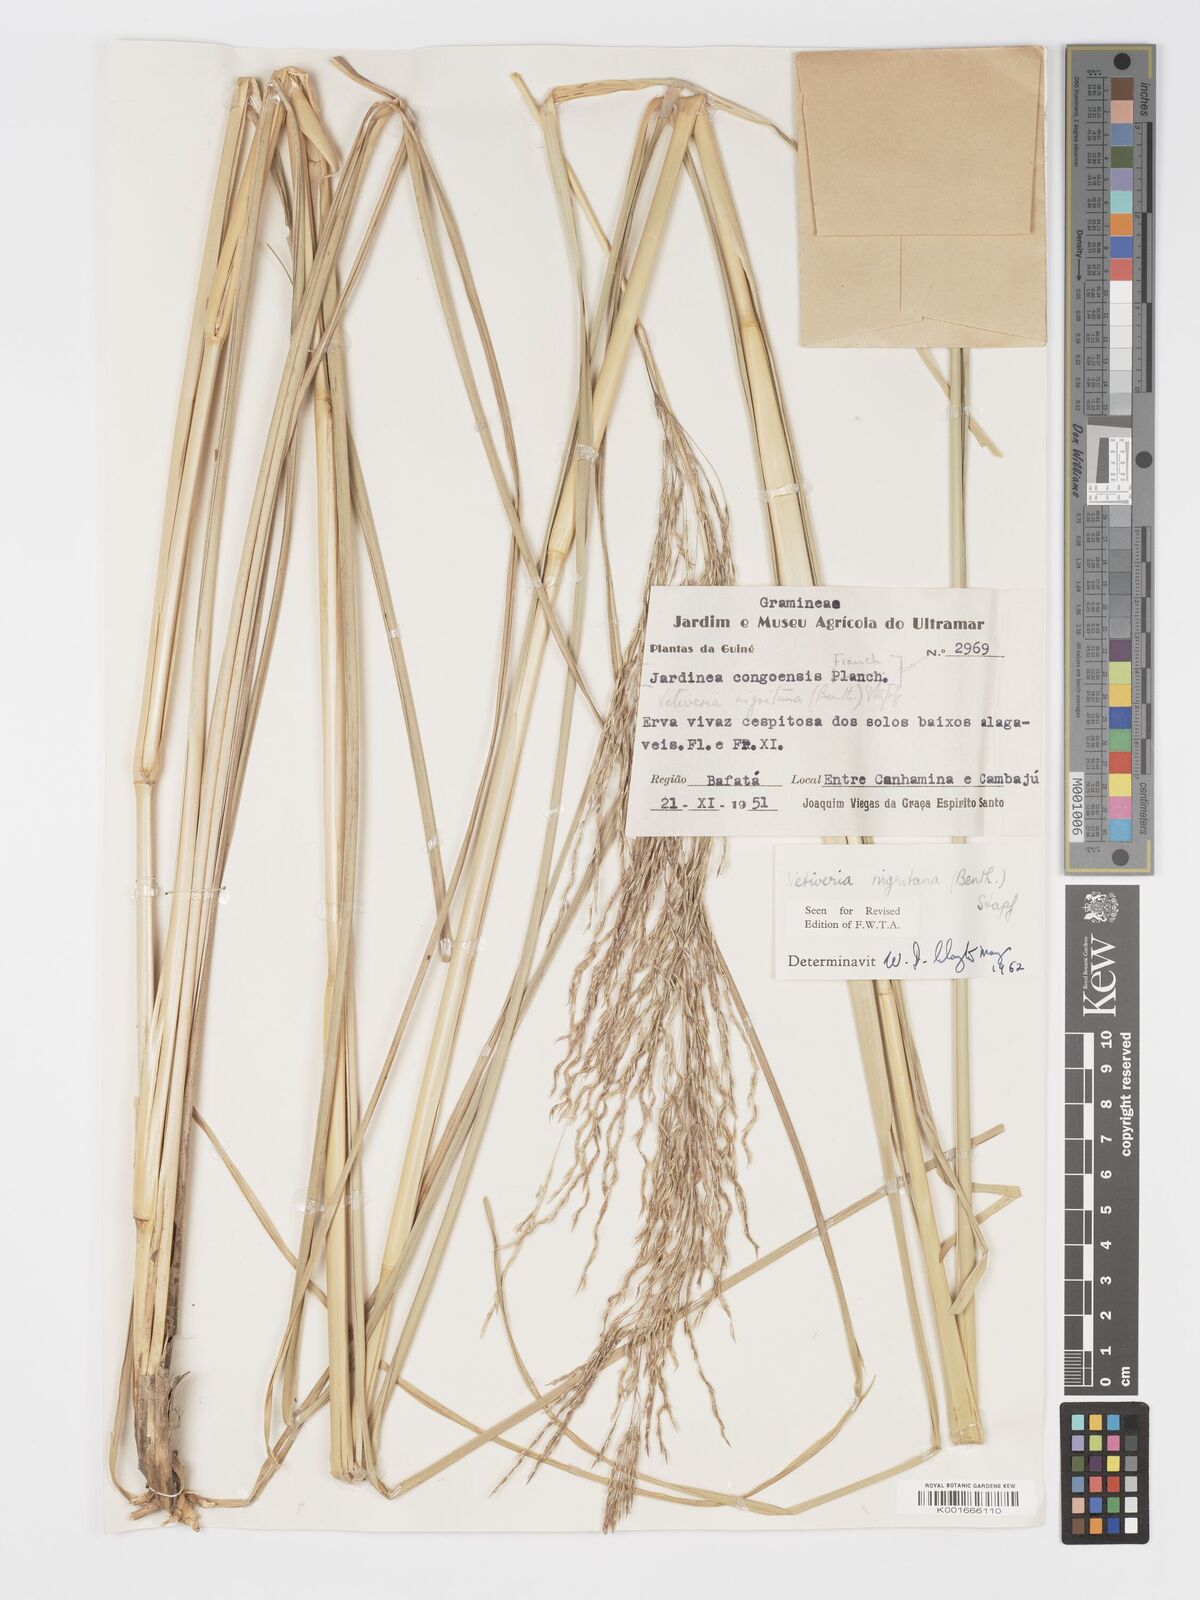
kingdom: Plantae
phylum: Tracheophyta
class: Liliopsida
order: Poales
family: Poaceae
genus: Chrysopogon
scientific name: Chrysopogon nigritanus
